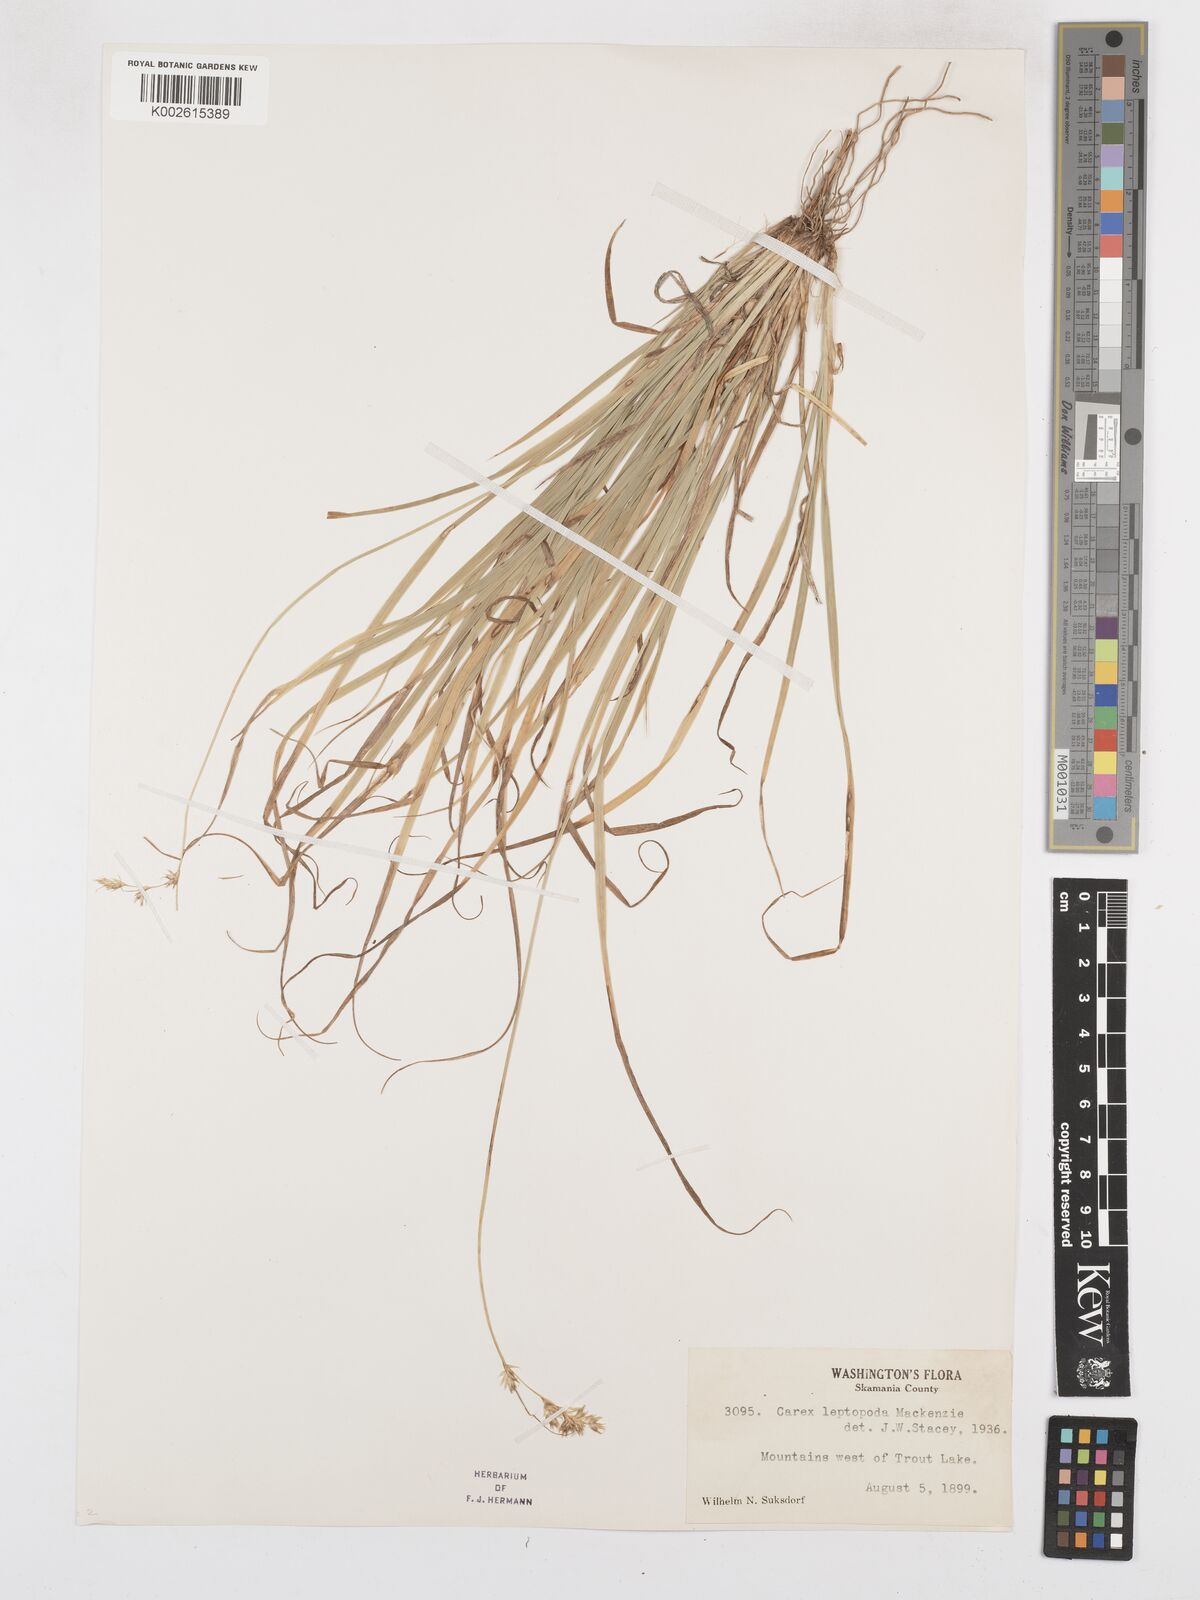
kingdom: Plantae
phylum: Tracheophyta
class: Liliopsida
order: Poales
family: Cyperaceae
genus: Carex
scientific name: Carex leptopoda
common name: Short-scale sedge
